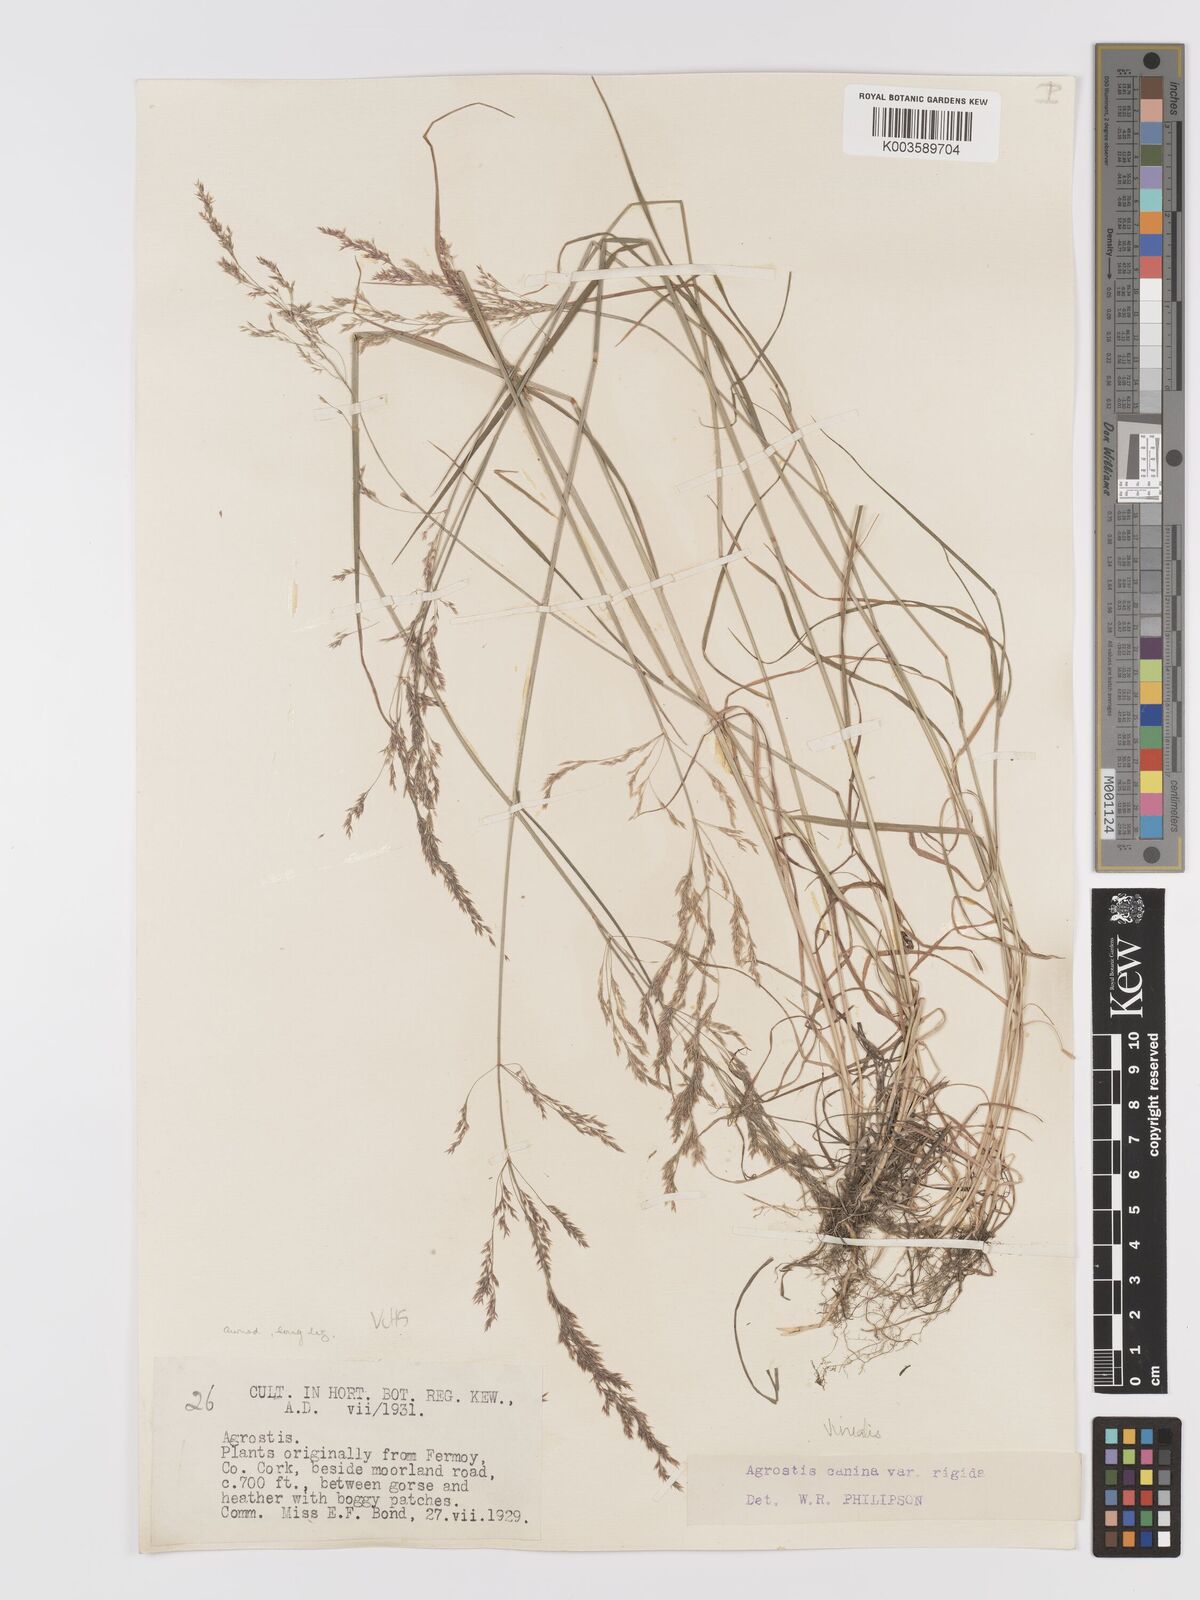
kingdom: Plantae
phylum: Tracheophyta
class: Liliopsida
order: Poales
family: Poaceae
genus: Agrostis
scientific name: Agrostis
